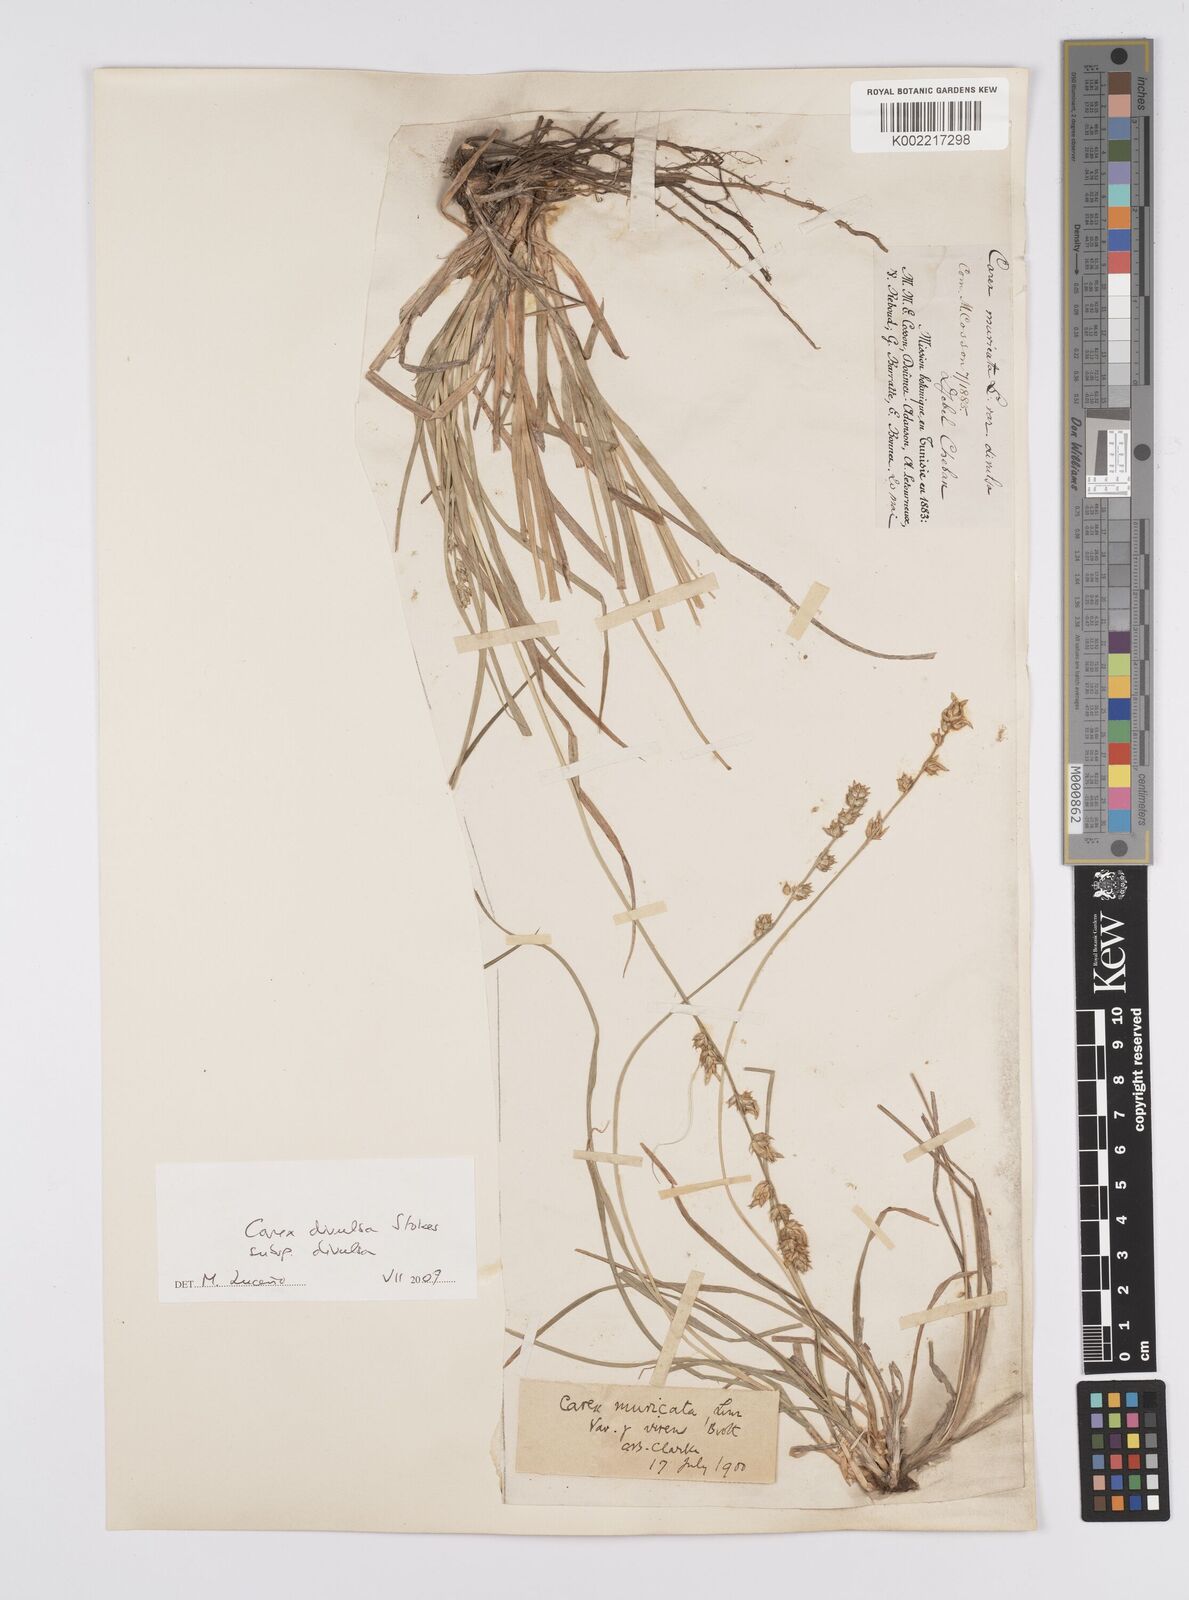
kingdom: Plantae
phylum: Tracheophyta
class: Liliopsida
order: Poales
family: Cyperaceae
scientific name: Cyperaceae
